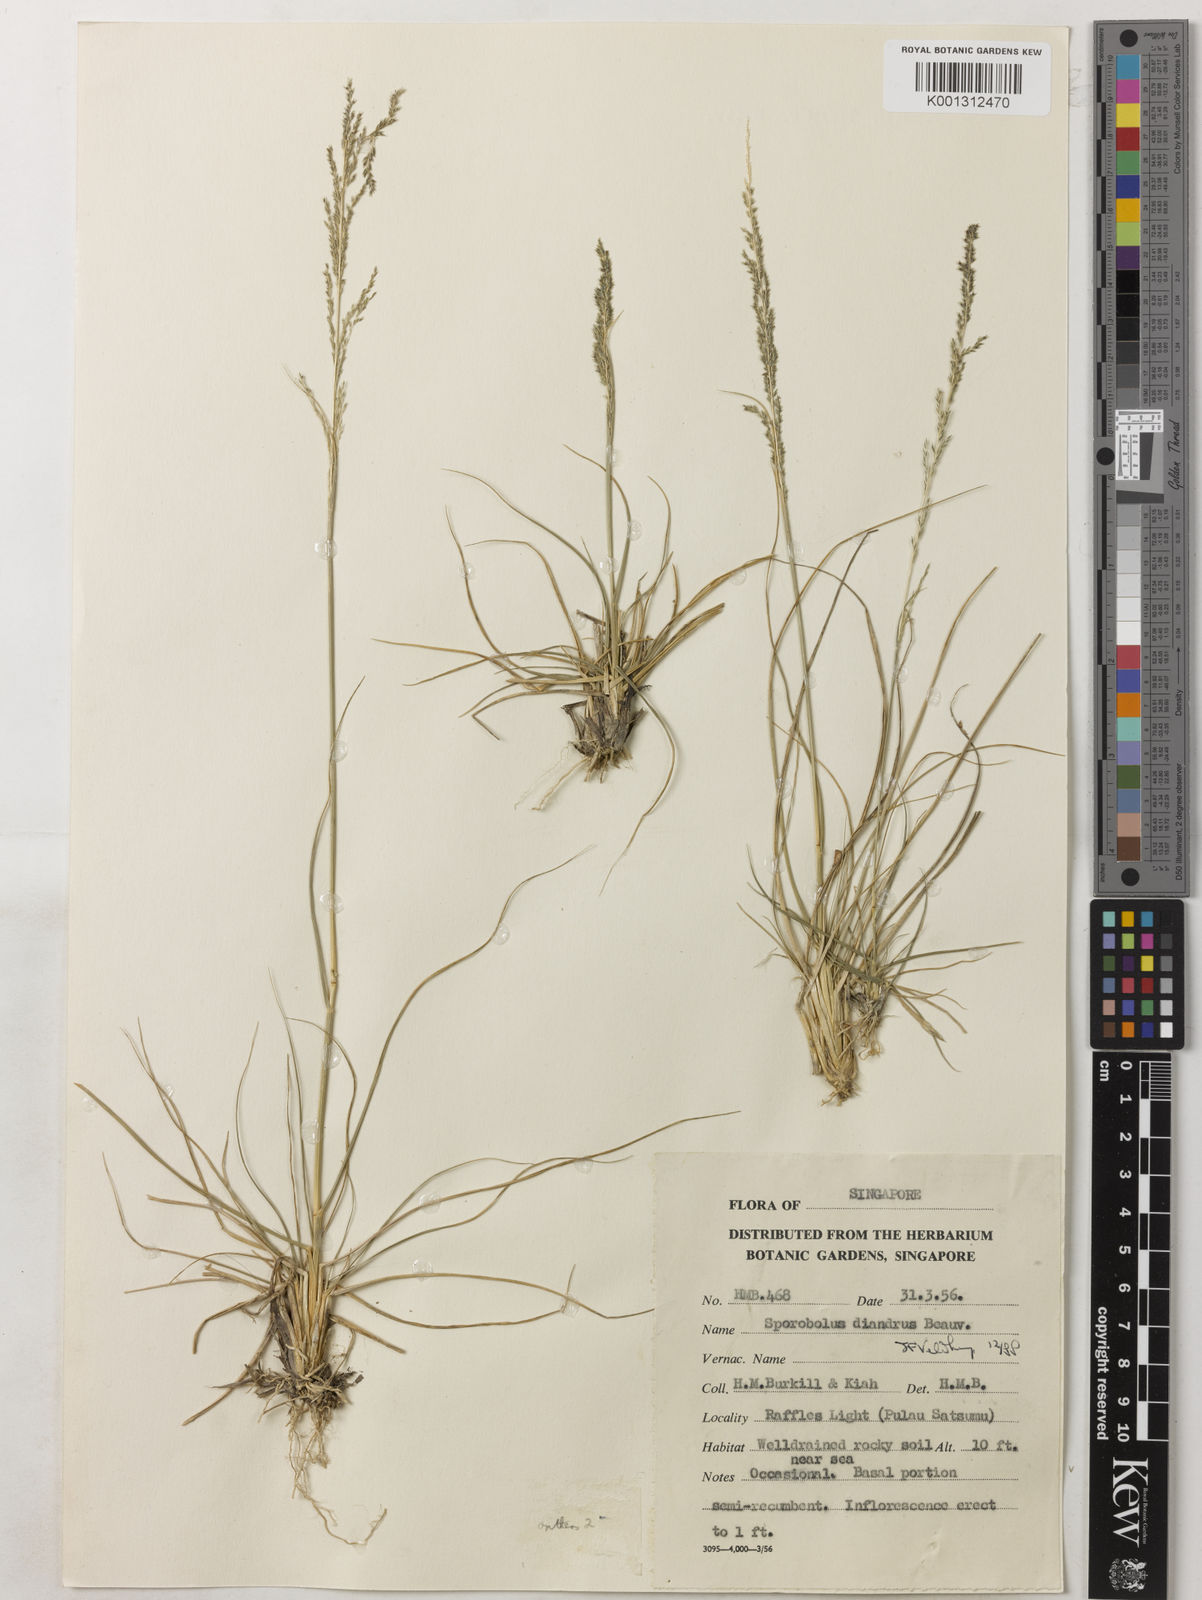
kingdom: Plantae
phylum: Tracheophyta
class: Liliopsida
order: Poales
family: Poaceae
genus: Sporobolus
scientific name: Sporobolus diandrus
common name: Tussock dropseed
